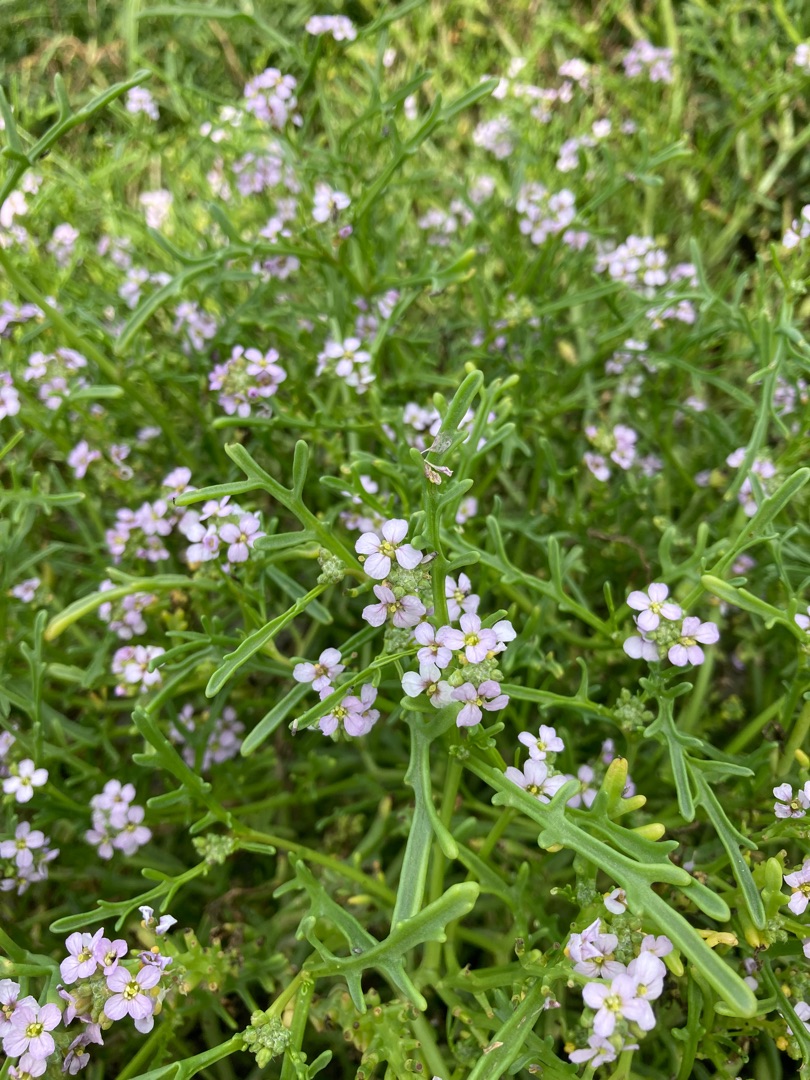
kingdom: Plantae
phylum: Tracheophyta
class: Magnoliopsida
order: Brassicales
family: Brassicaceae
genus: Cakile
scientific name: Cakile maritima
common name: Strandsennep
